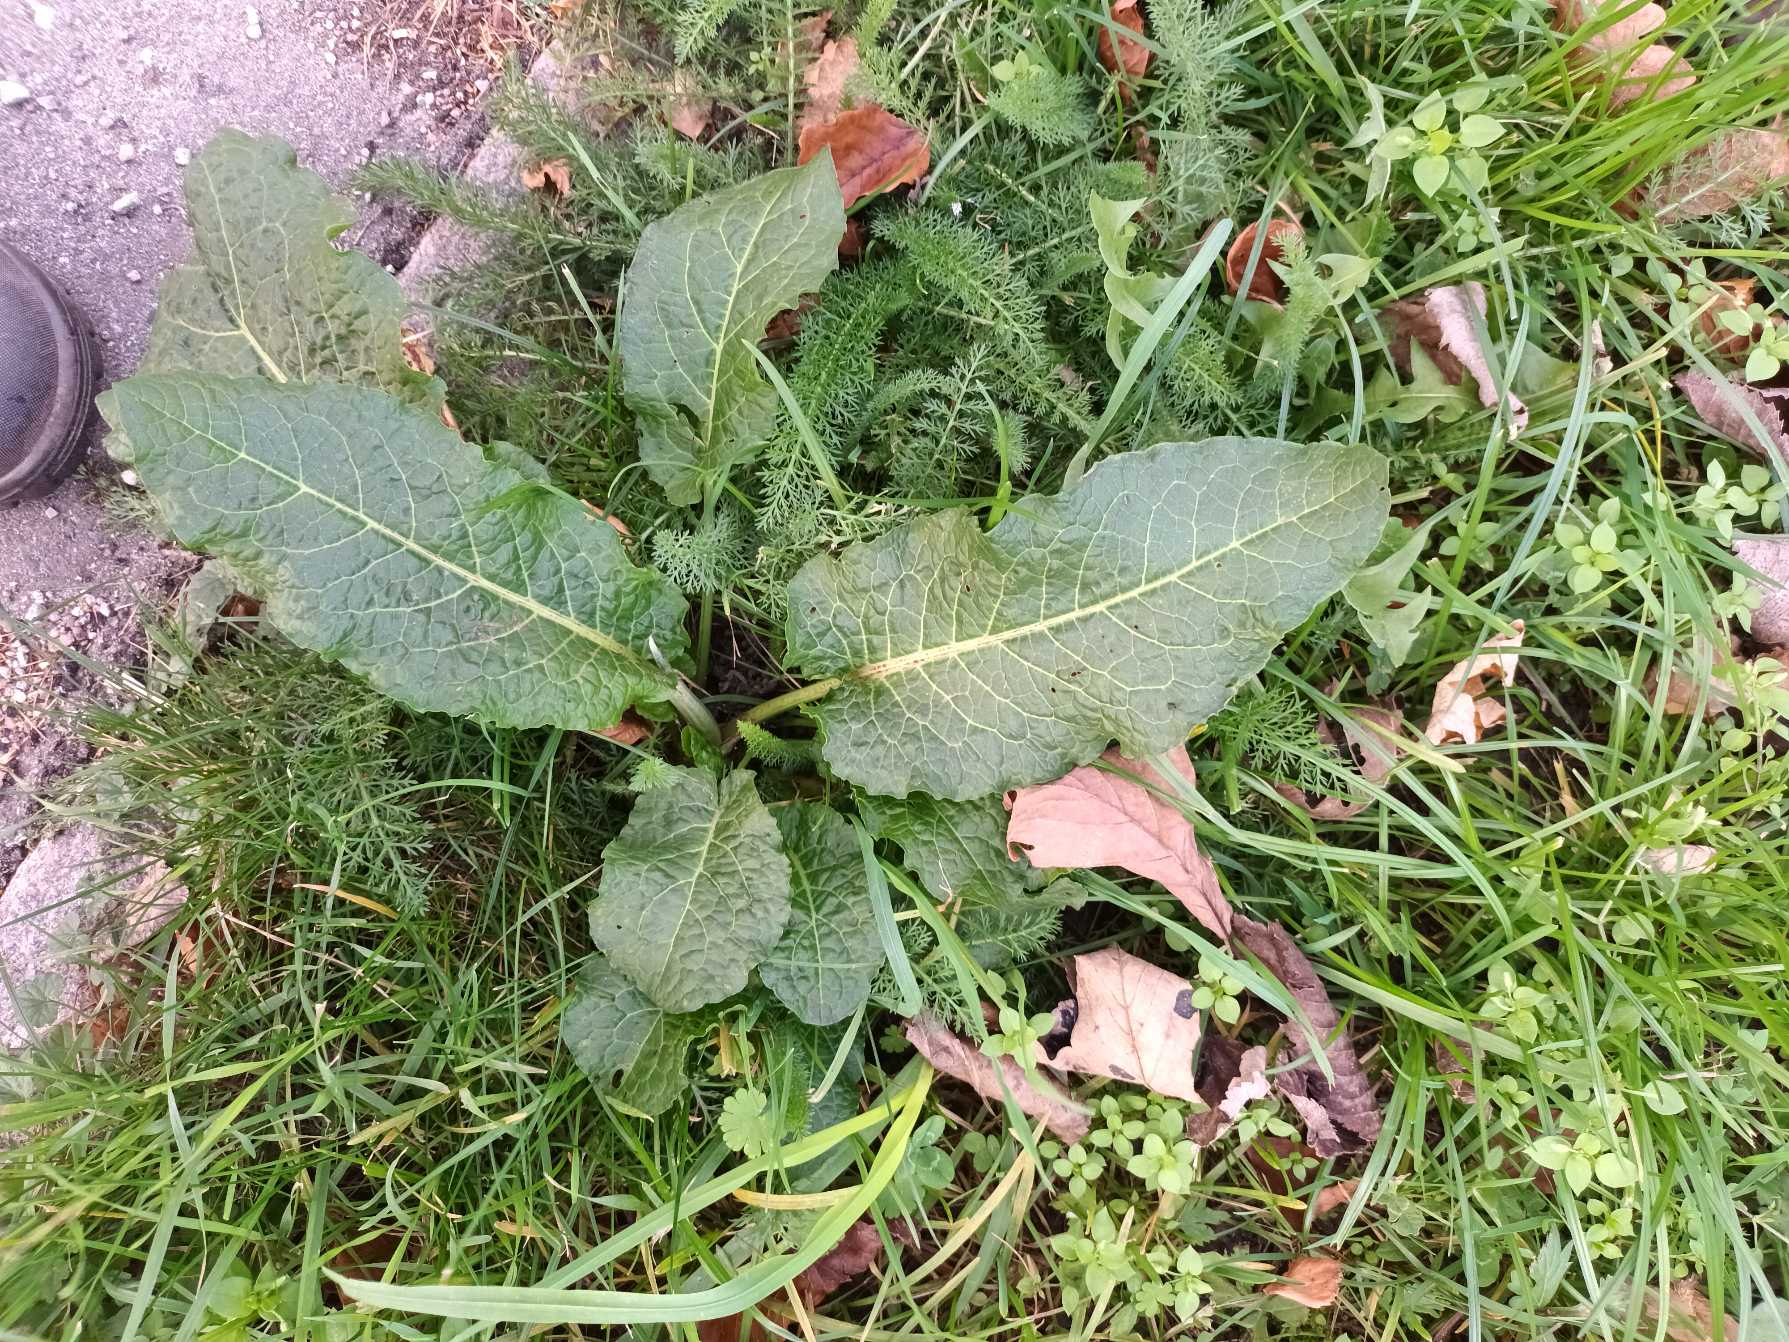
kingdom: Plantae
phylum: Tracheophyta
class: Magnoliopsida
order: Caryophyllales
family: Polygonaceae
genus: Rumex
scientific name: Rumex obtusifolius
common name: Butbladet skræppe
